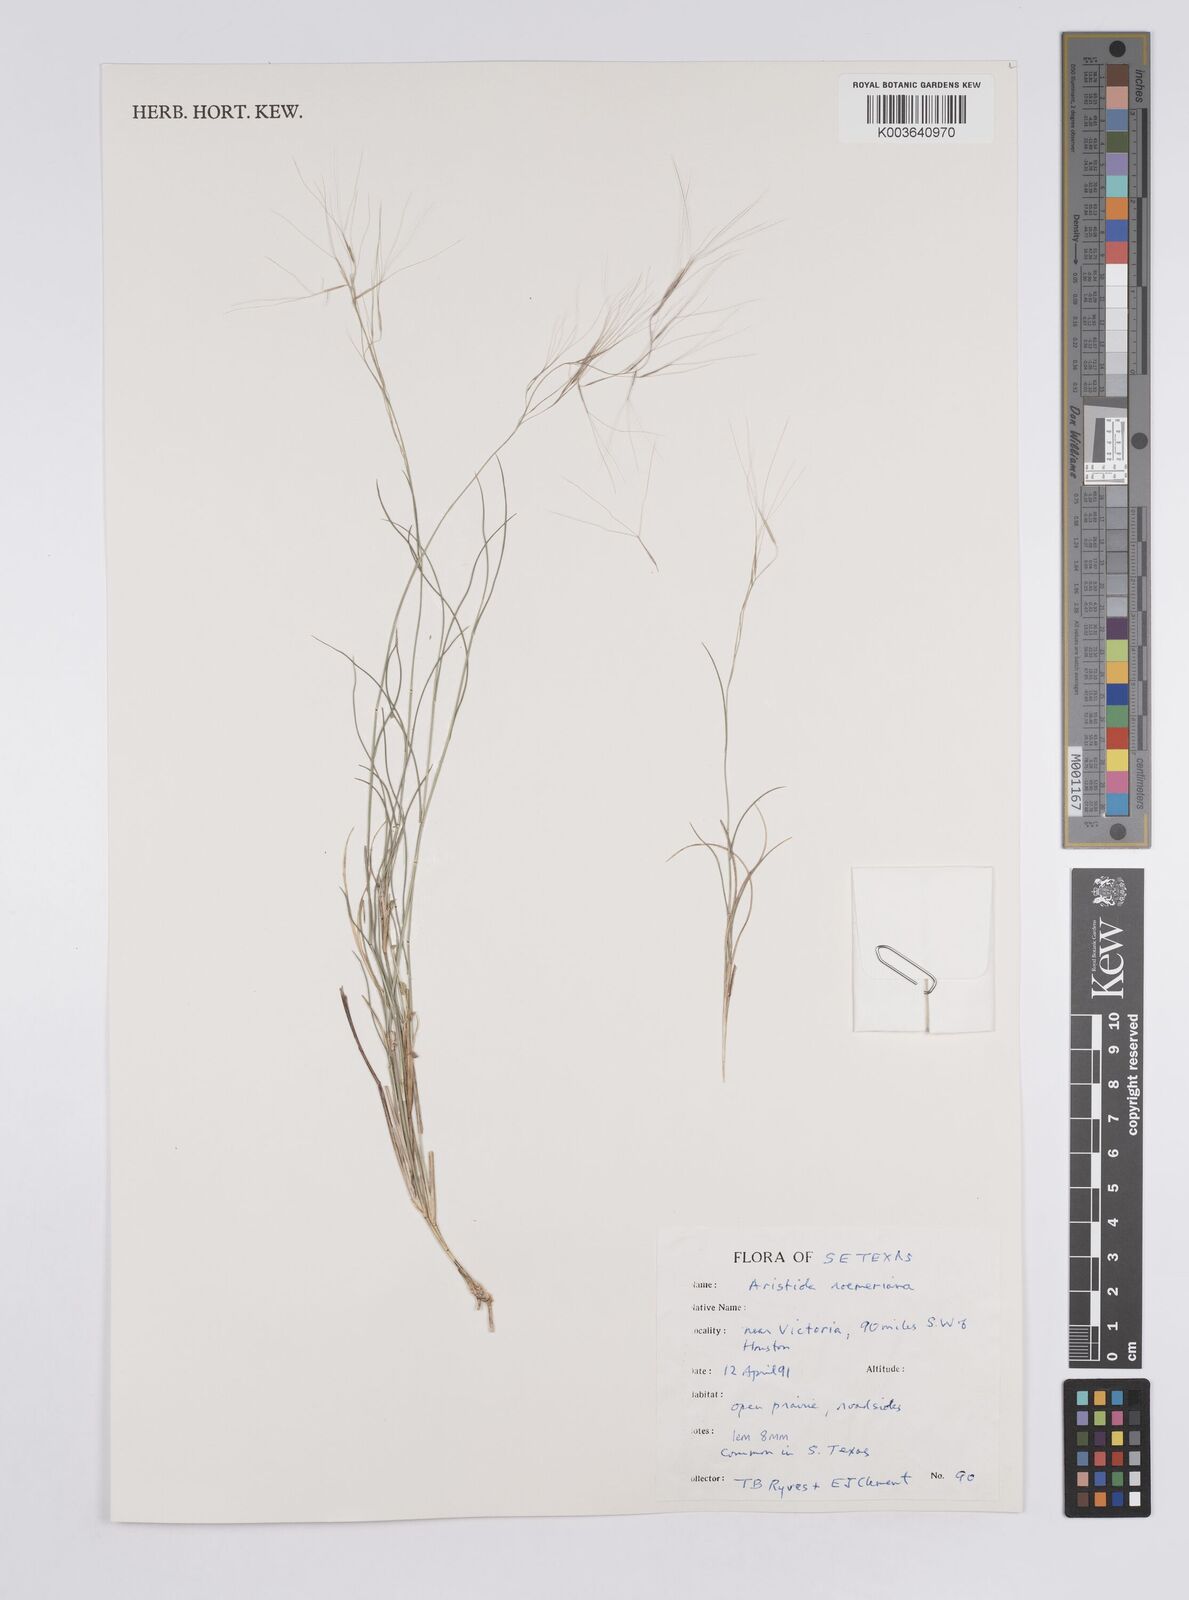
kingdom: Plantae
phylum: Tracheophyta
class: Liliopsida
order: Poales
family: Poaceae
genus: Aristida
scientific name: Aristida purpurea
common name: Purple threeawn
